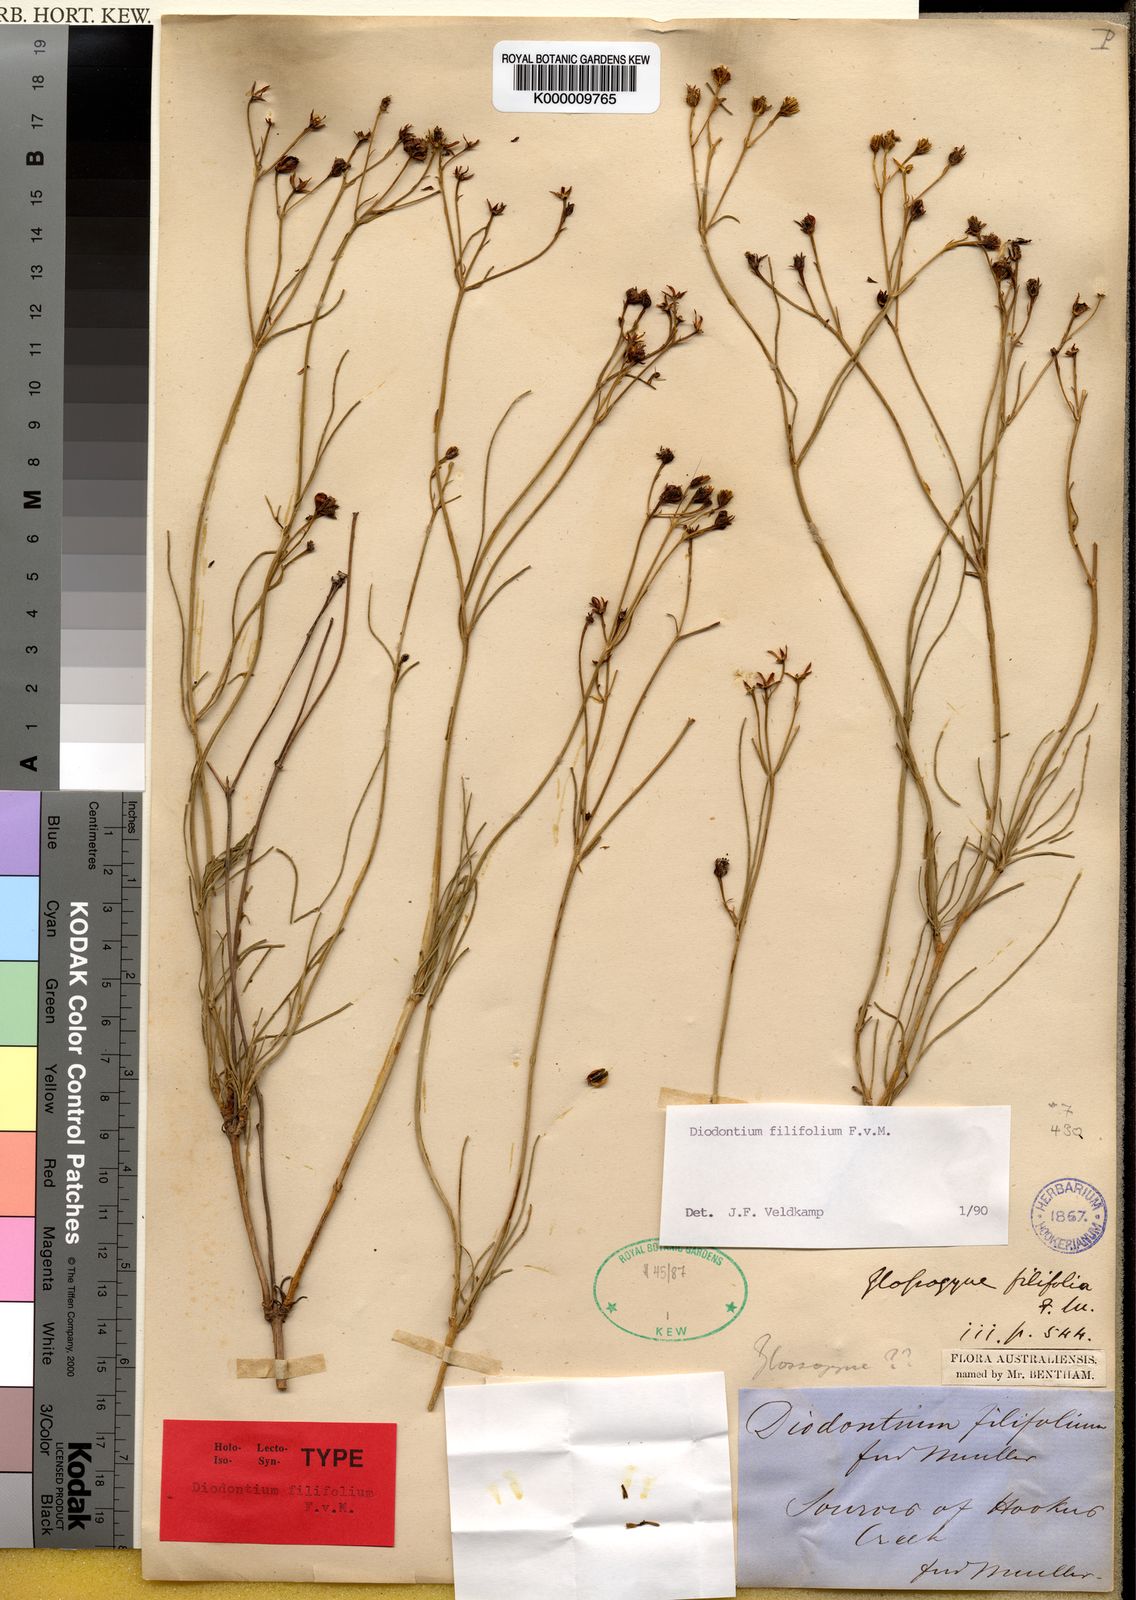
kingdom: Plantae
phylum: Tracheophyta
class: Magnoliopsida
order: Asterales
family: Asteraceae
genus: Diodontium
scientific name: Diodontium filifolium
